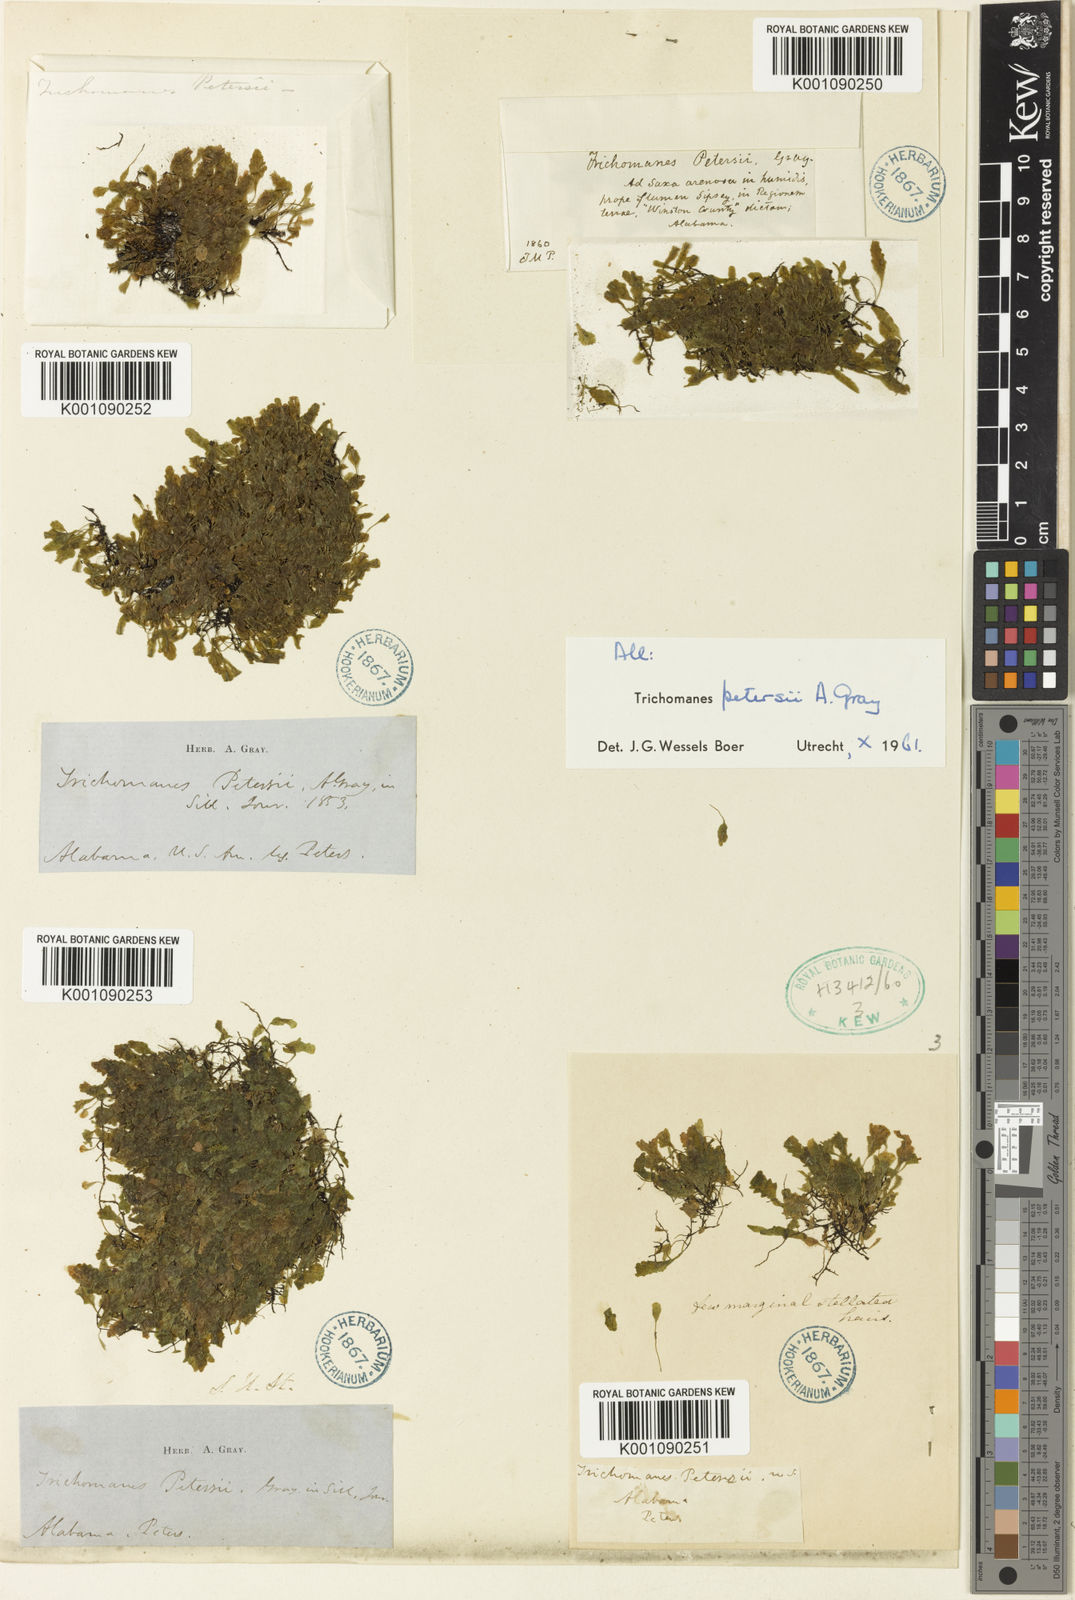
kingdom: Plantae
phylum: Tracheophyta
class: Polypodiopsida
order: Hymenophyllales
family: Hymenophyllaceae
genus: Didymoglossum
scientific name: Didymoglossum petersii
